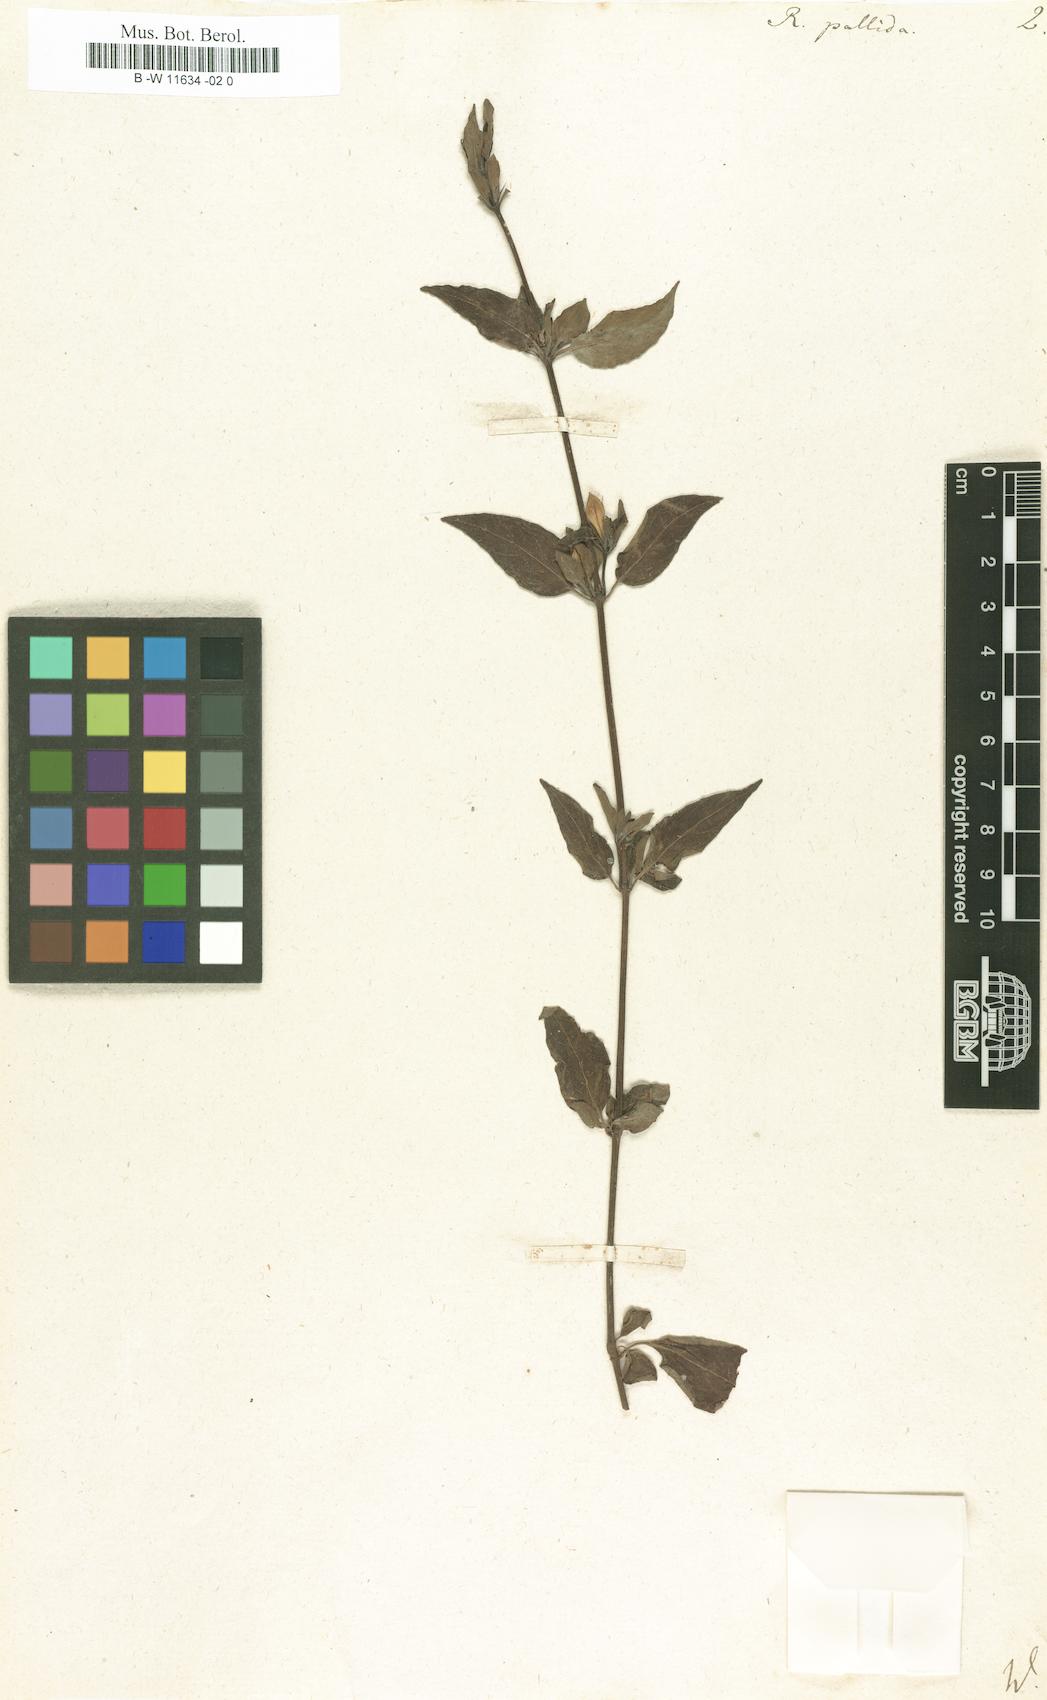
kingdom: Plantae
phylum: Tracheophyta
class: Magnoliopsida
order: Lamiales
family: Acanthaceae
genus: Ruellia
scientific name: Ruellia patula
